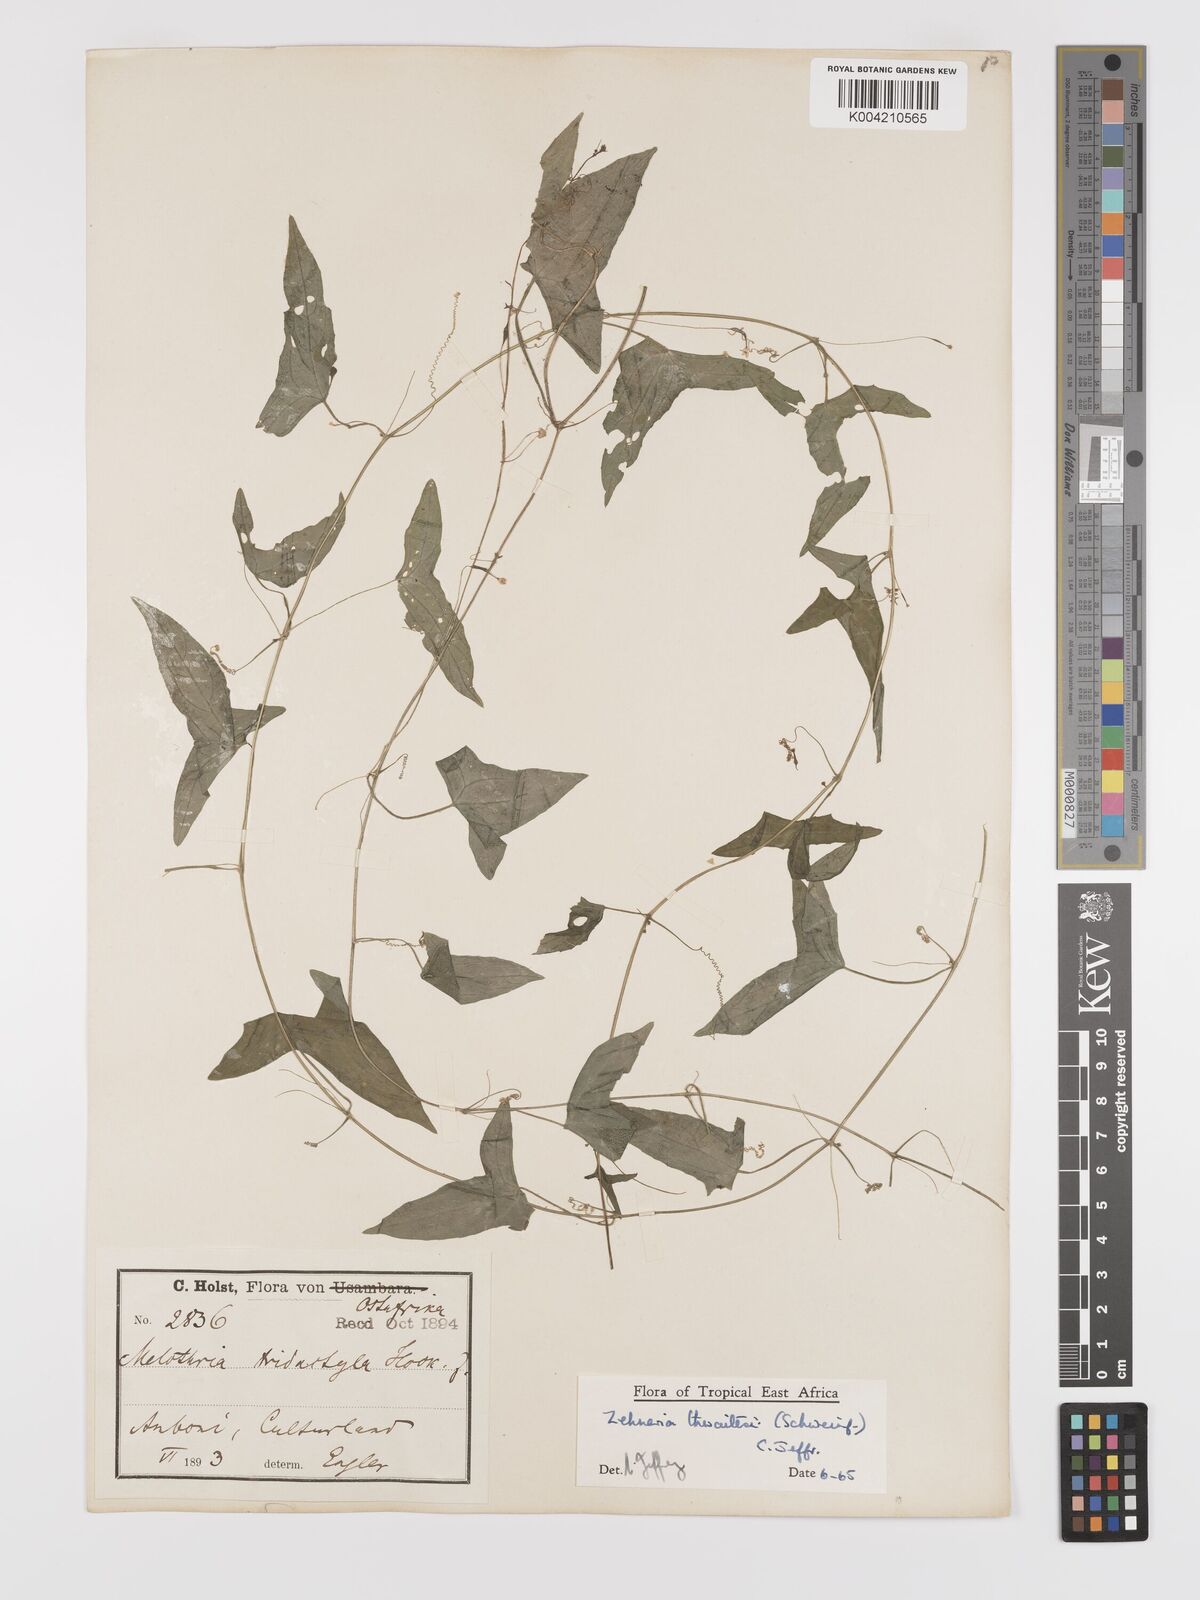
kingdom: Plantae
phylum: Tracheophyta
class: Magnoliopsida
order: Cucurbitales
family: Cucurbitaceae
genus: Zehneria
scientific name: Zehneria thwaitesii
